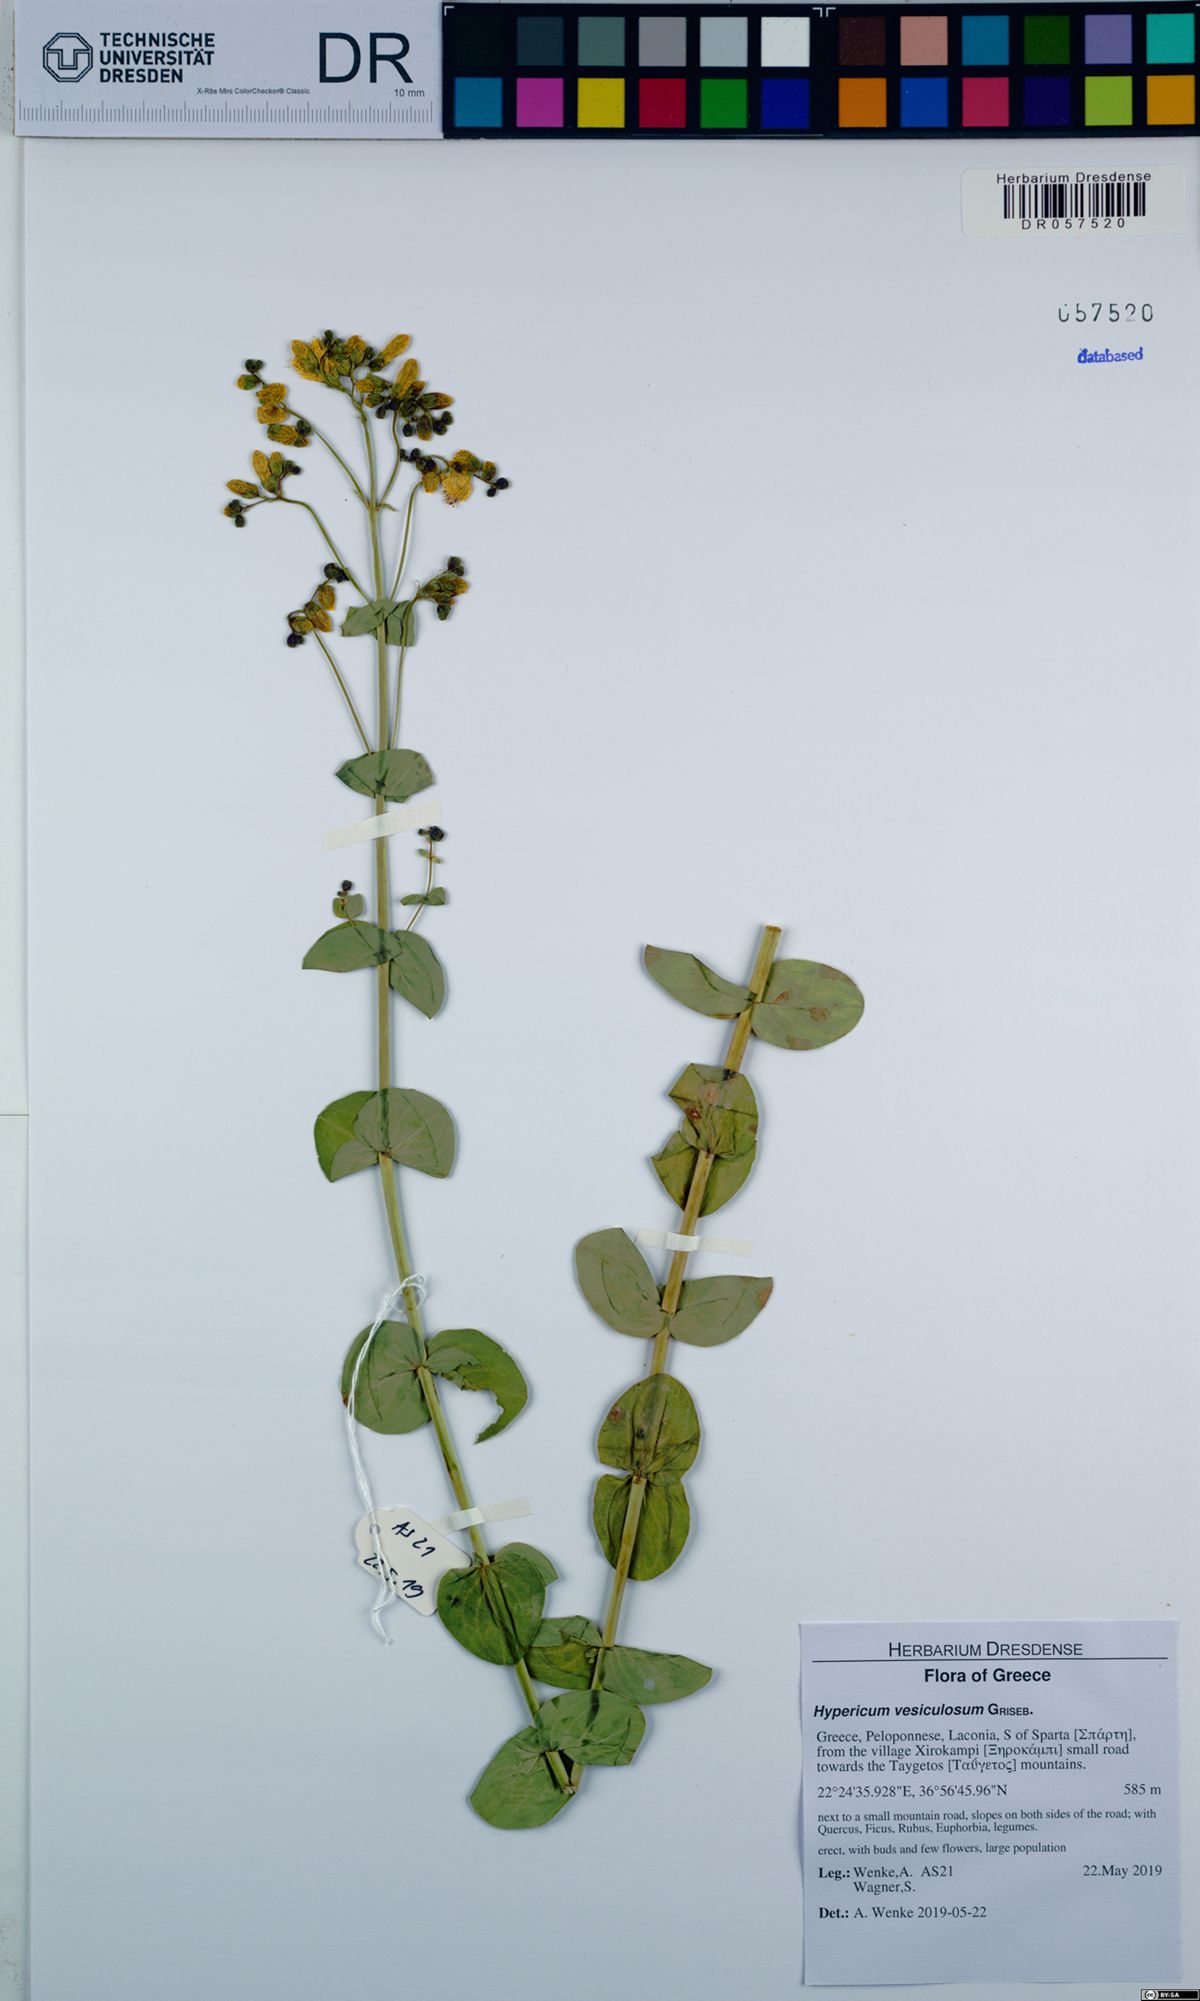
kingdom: Plantae
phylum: Tracheophyta
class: Magnoliopsida
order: Malpighiales
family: Hypericaceae
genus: Hypericum
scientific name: Hypericum vesiculosum
